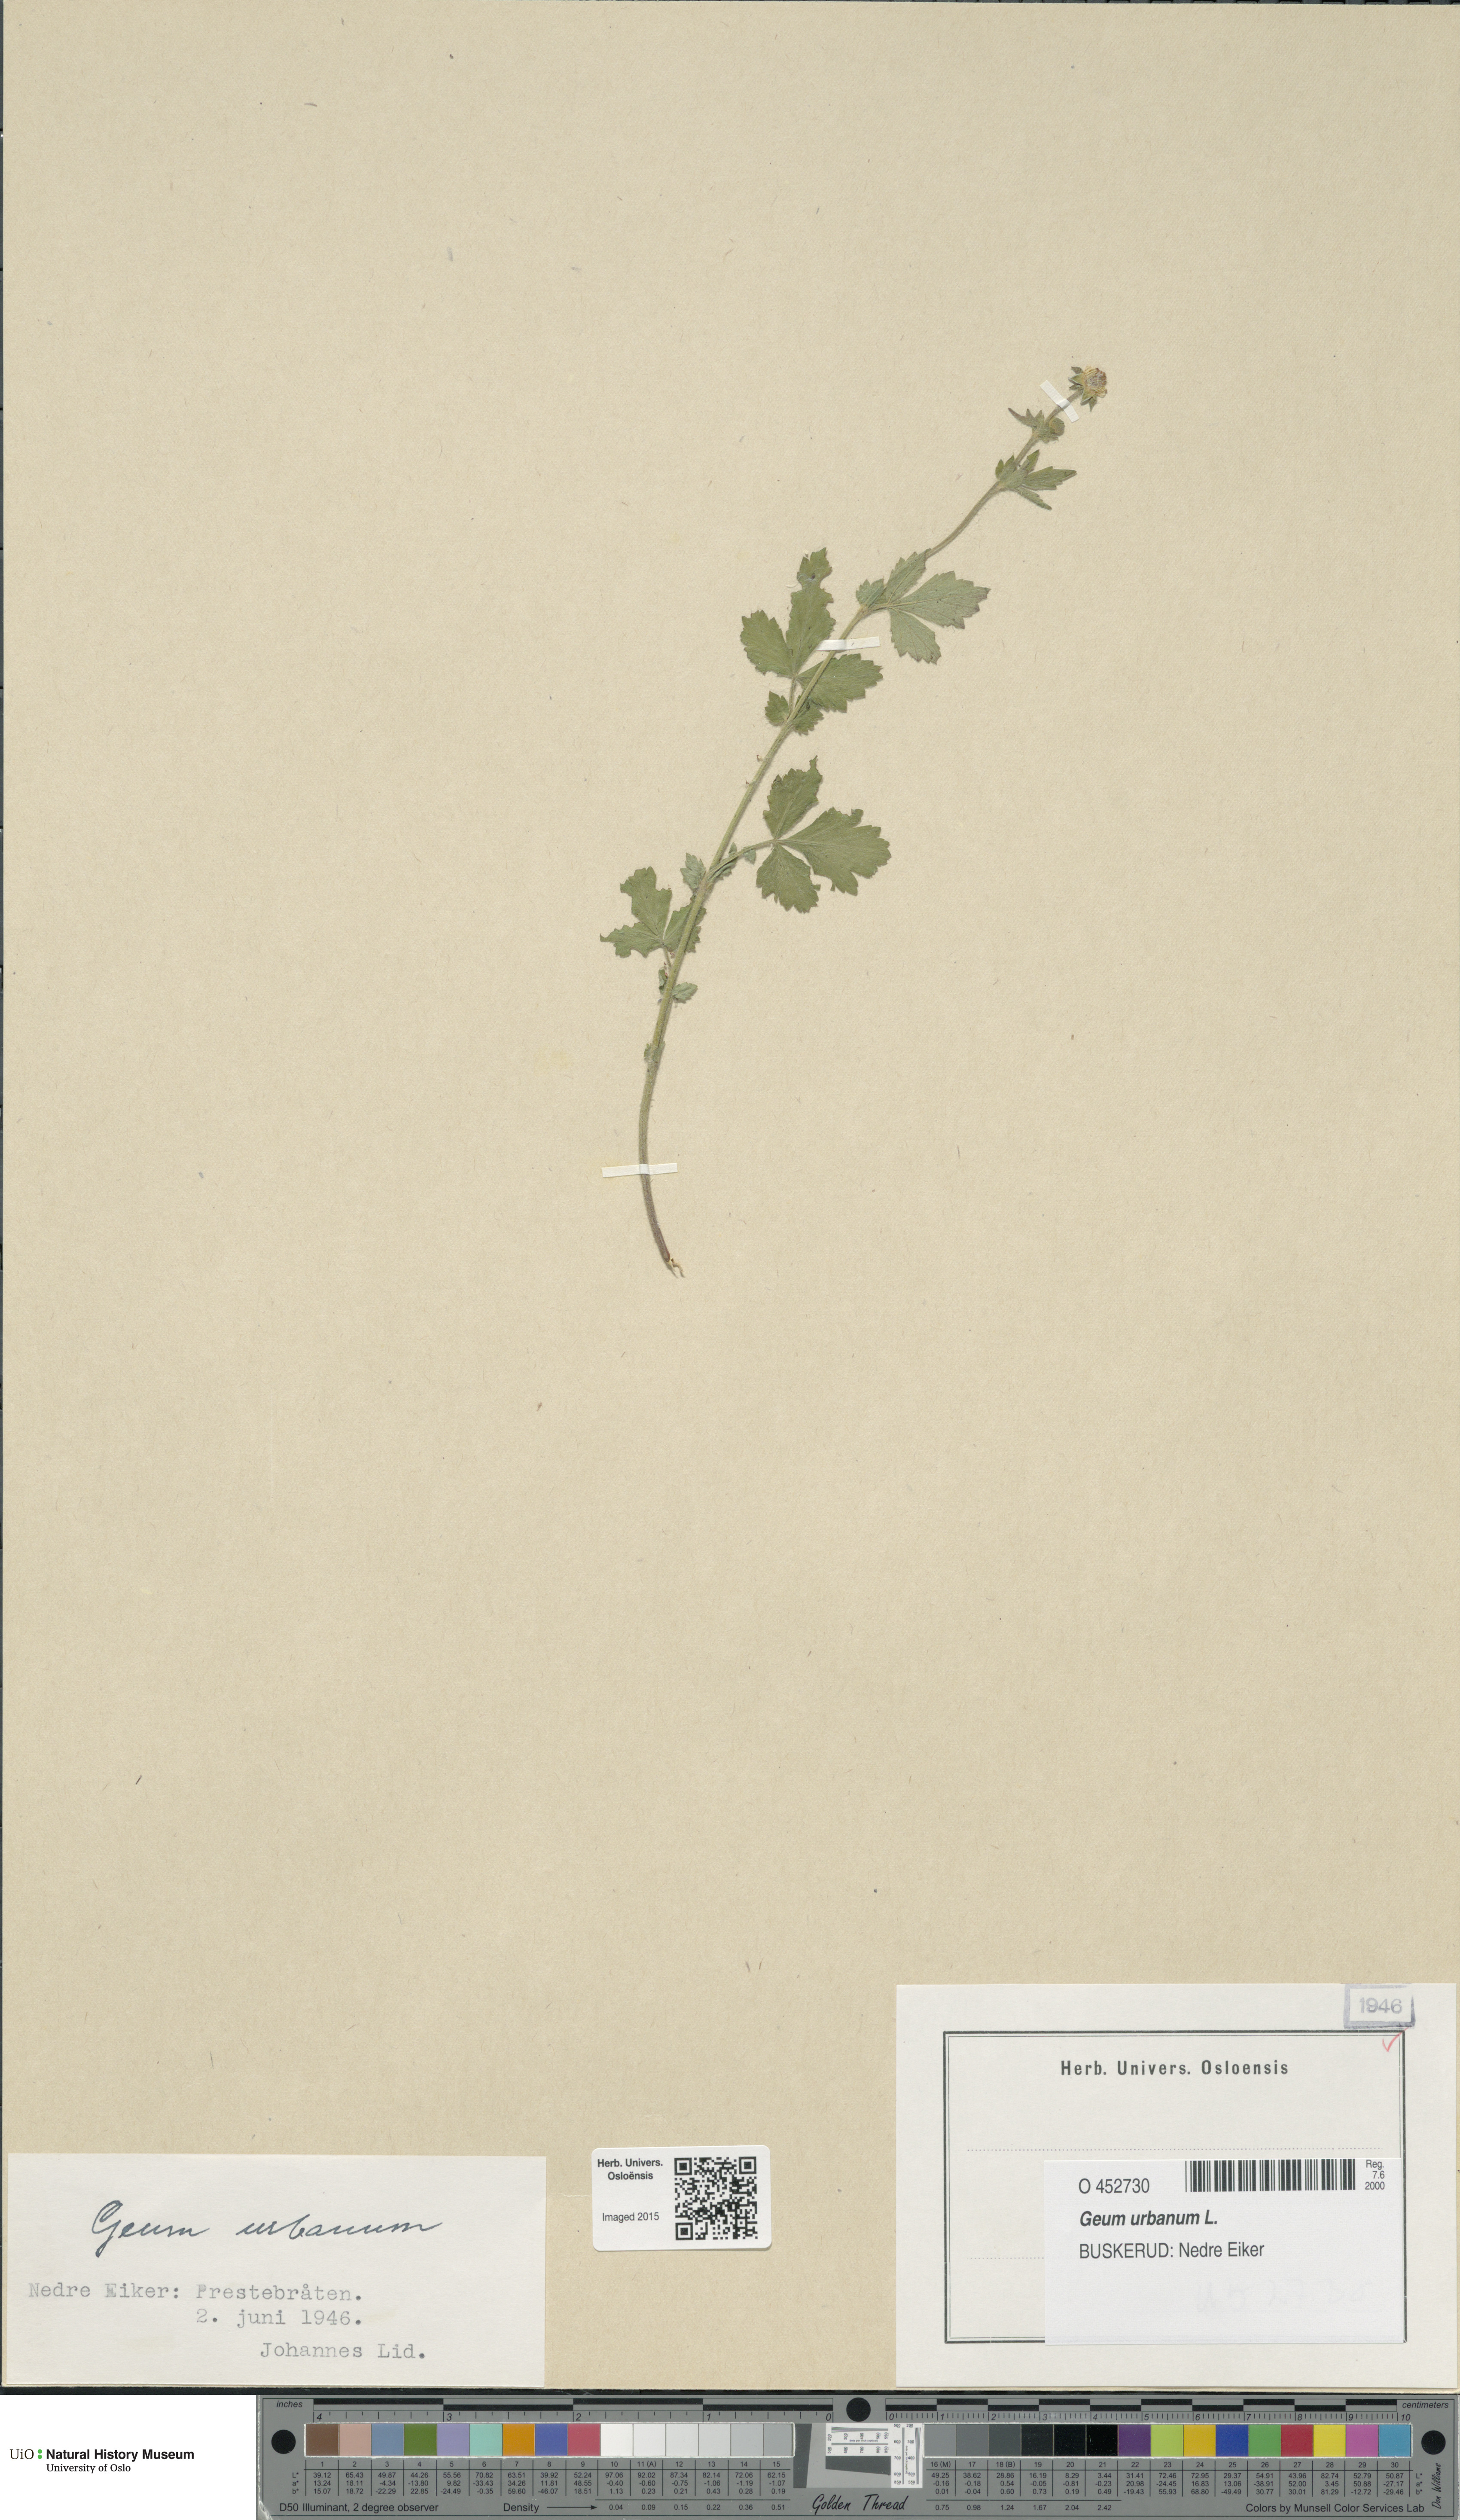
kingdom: Plantae
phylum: Tracheophyta
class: Magnoliopsida
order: Rosales
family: Rosaceae
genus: Geum
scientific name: Geum urbanum
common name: Wood avens
